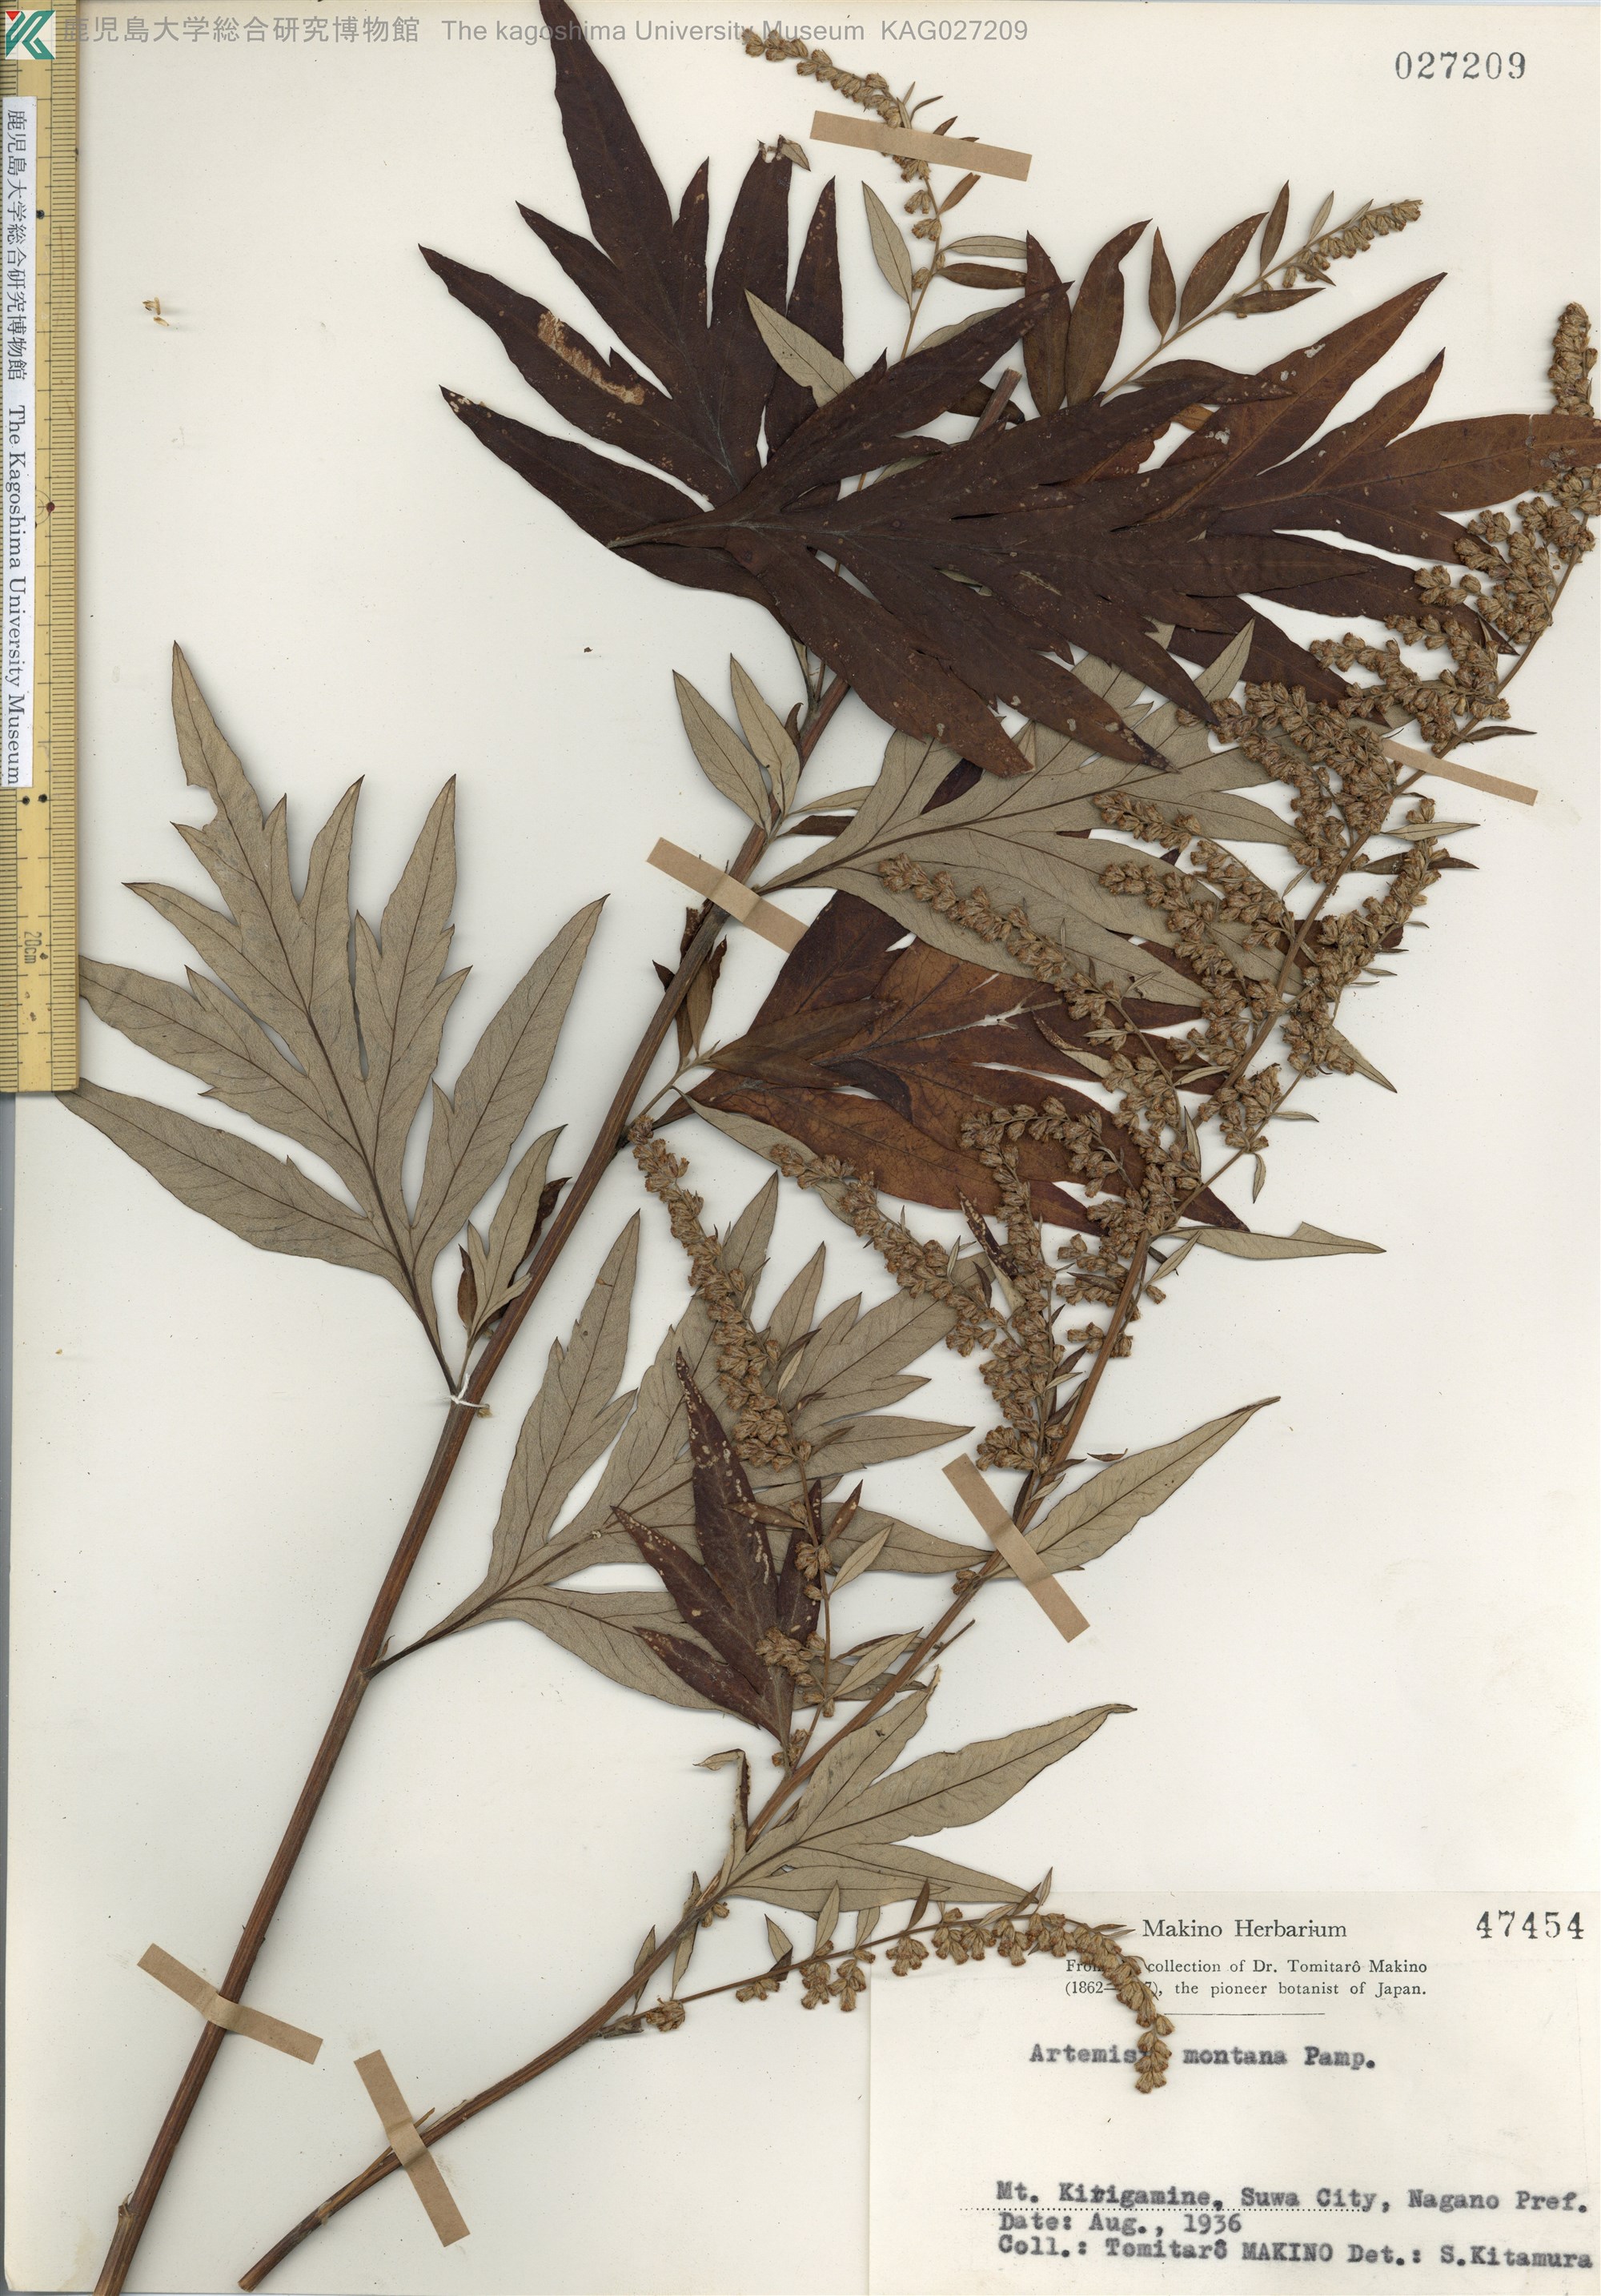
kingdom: Plantae
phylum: Tracheophyta
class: Magnoliopsida
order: Asterales
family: Asteraceae
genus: Artemisia
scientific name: Artemisia montana
